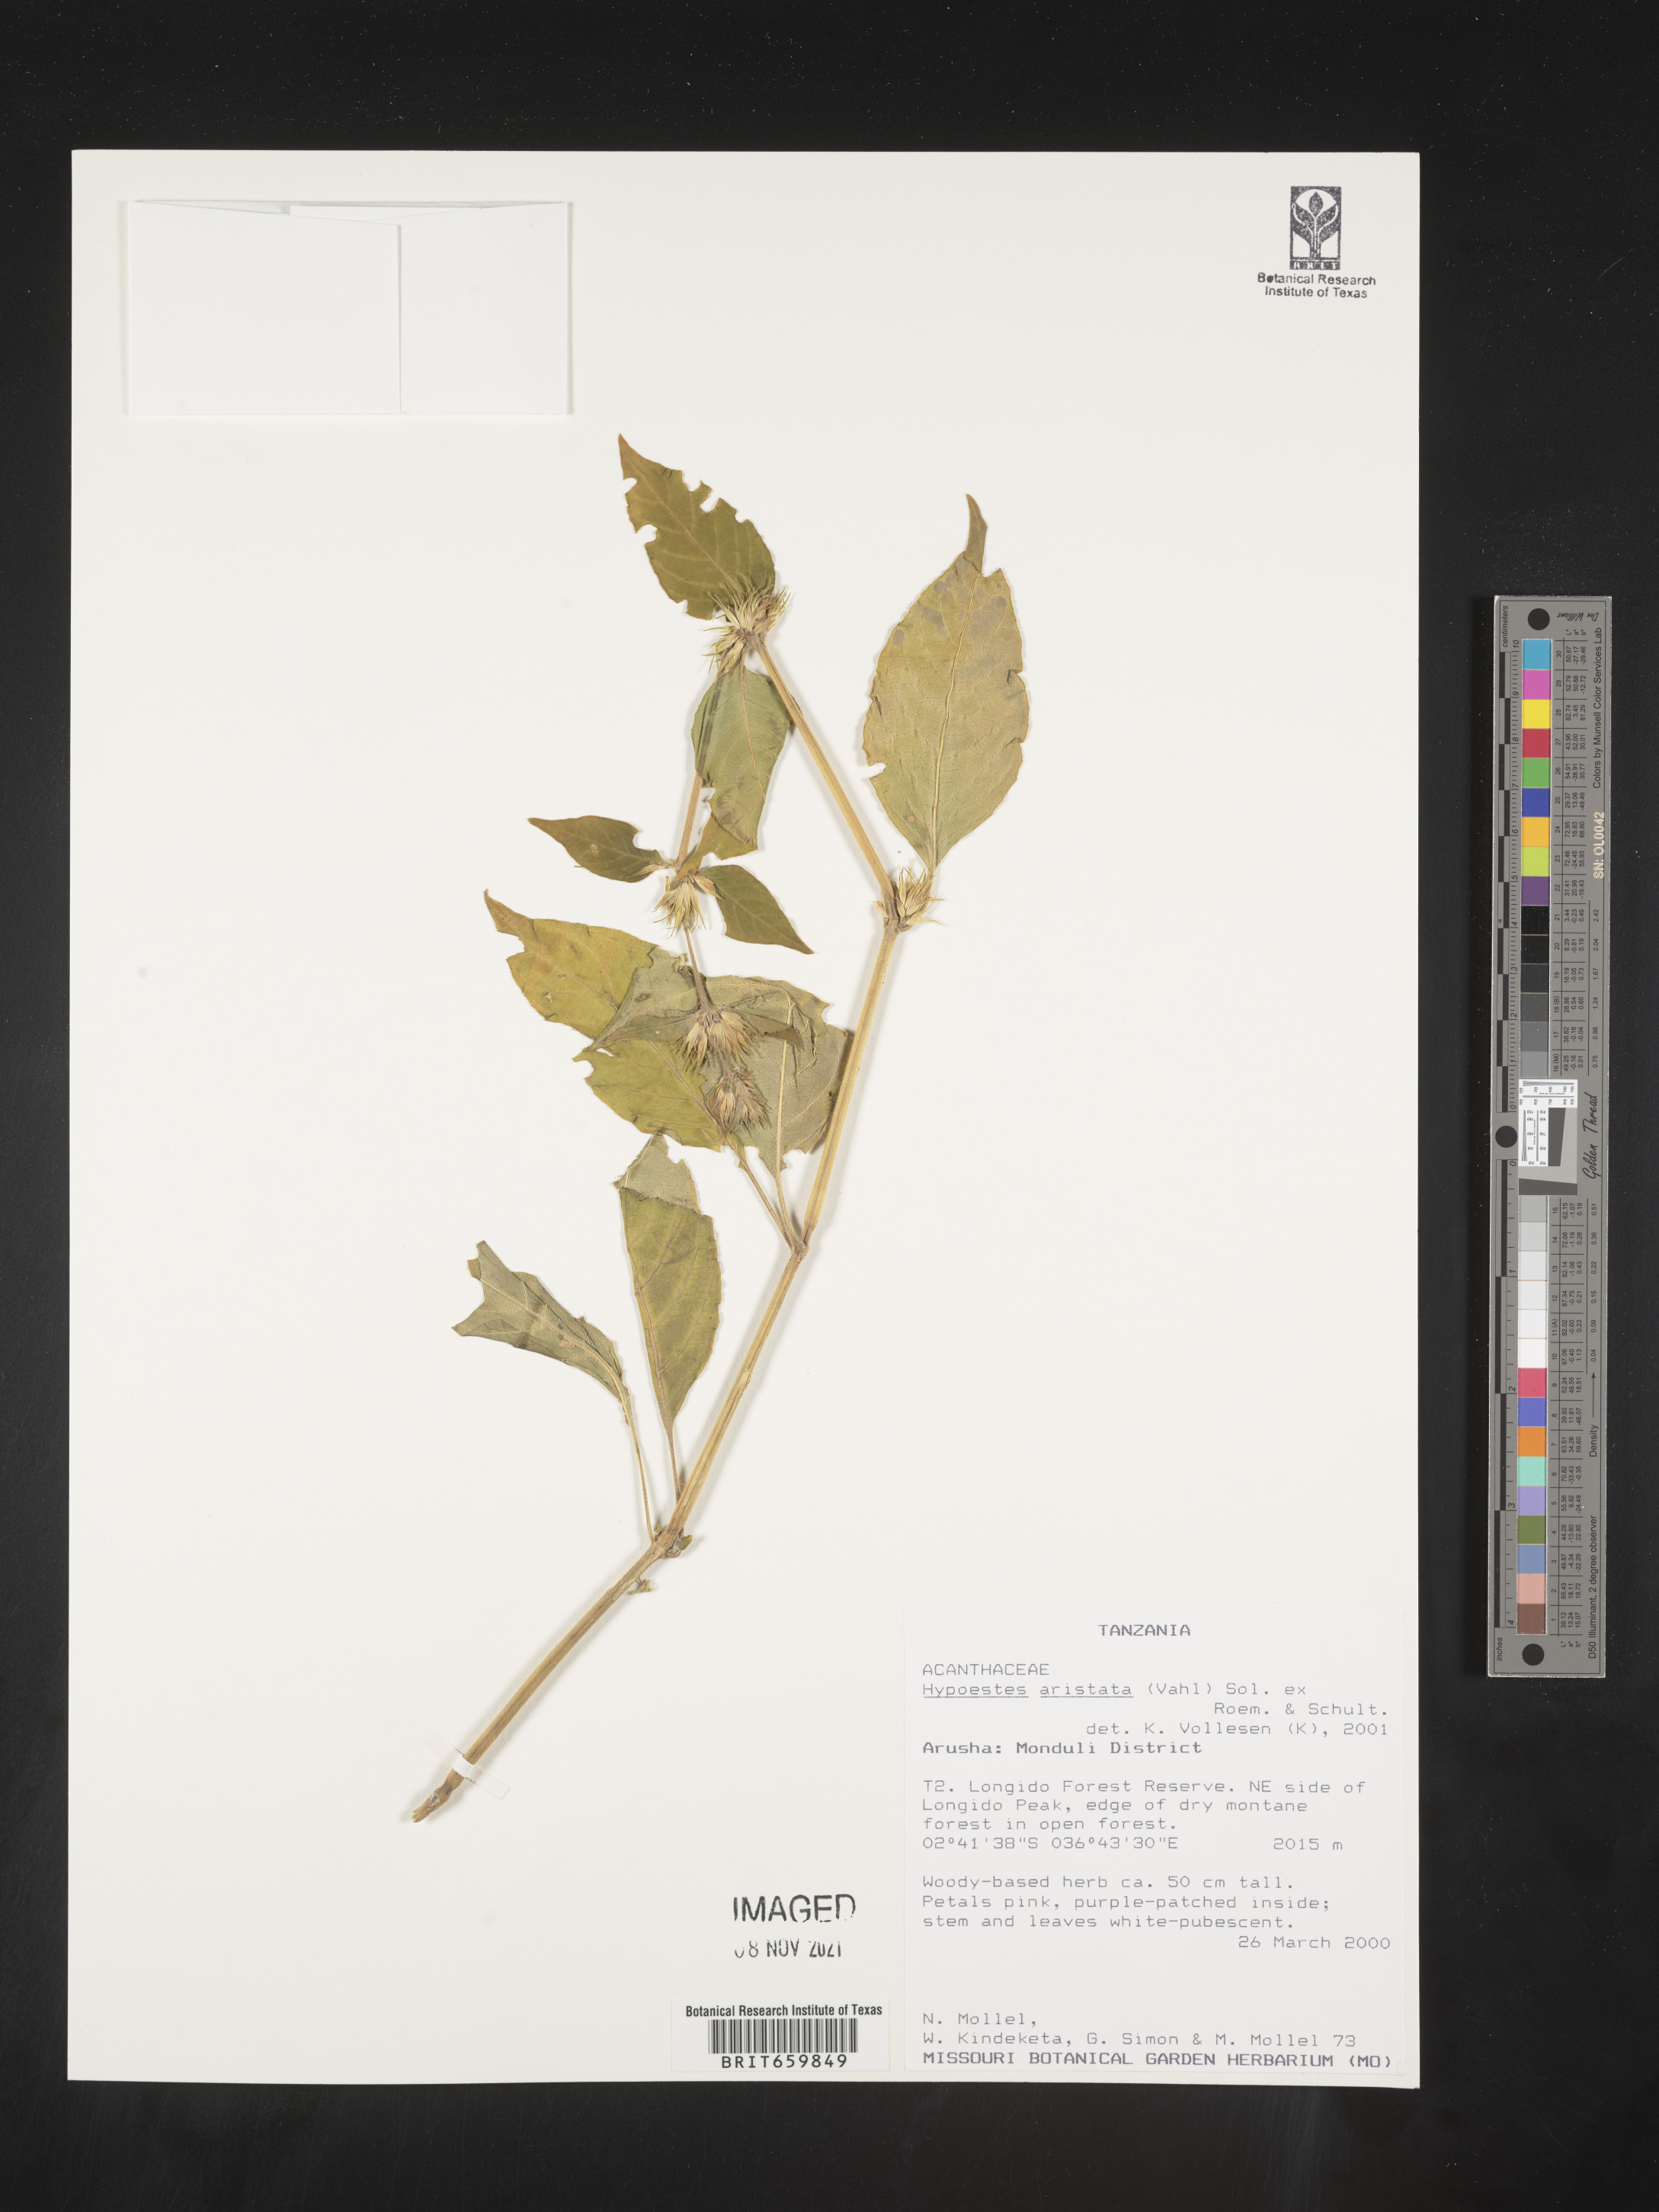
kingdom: Plantae
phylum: Tracheophyta
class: Magnoliopsida
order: Lamiales
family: Acanthaceae
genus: Hypoestes
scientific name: Hypoestes aristata
